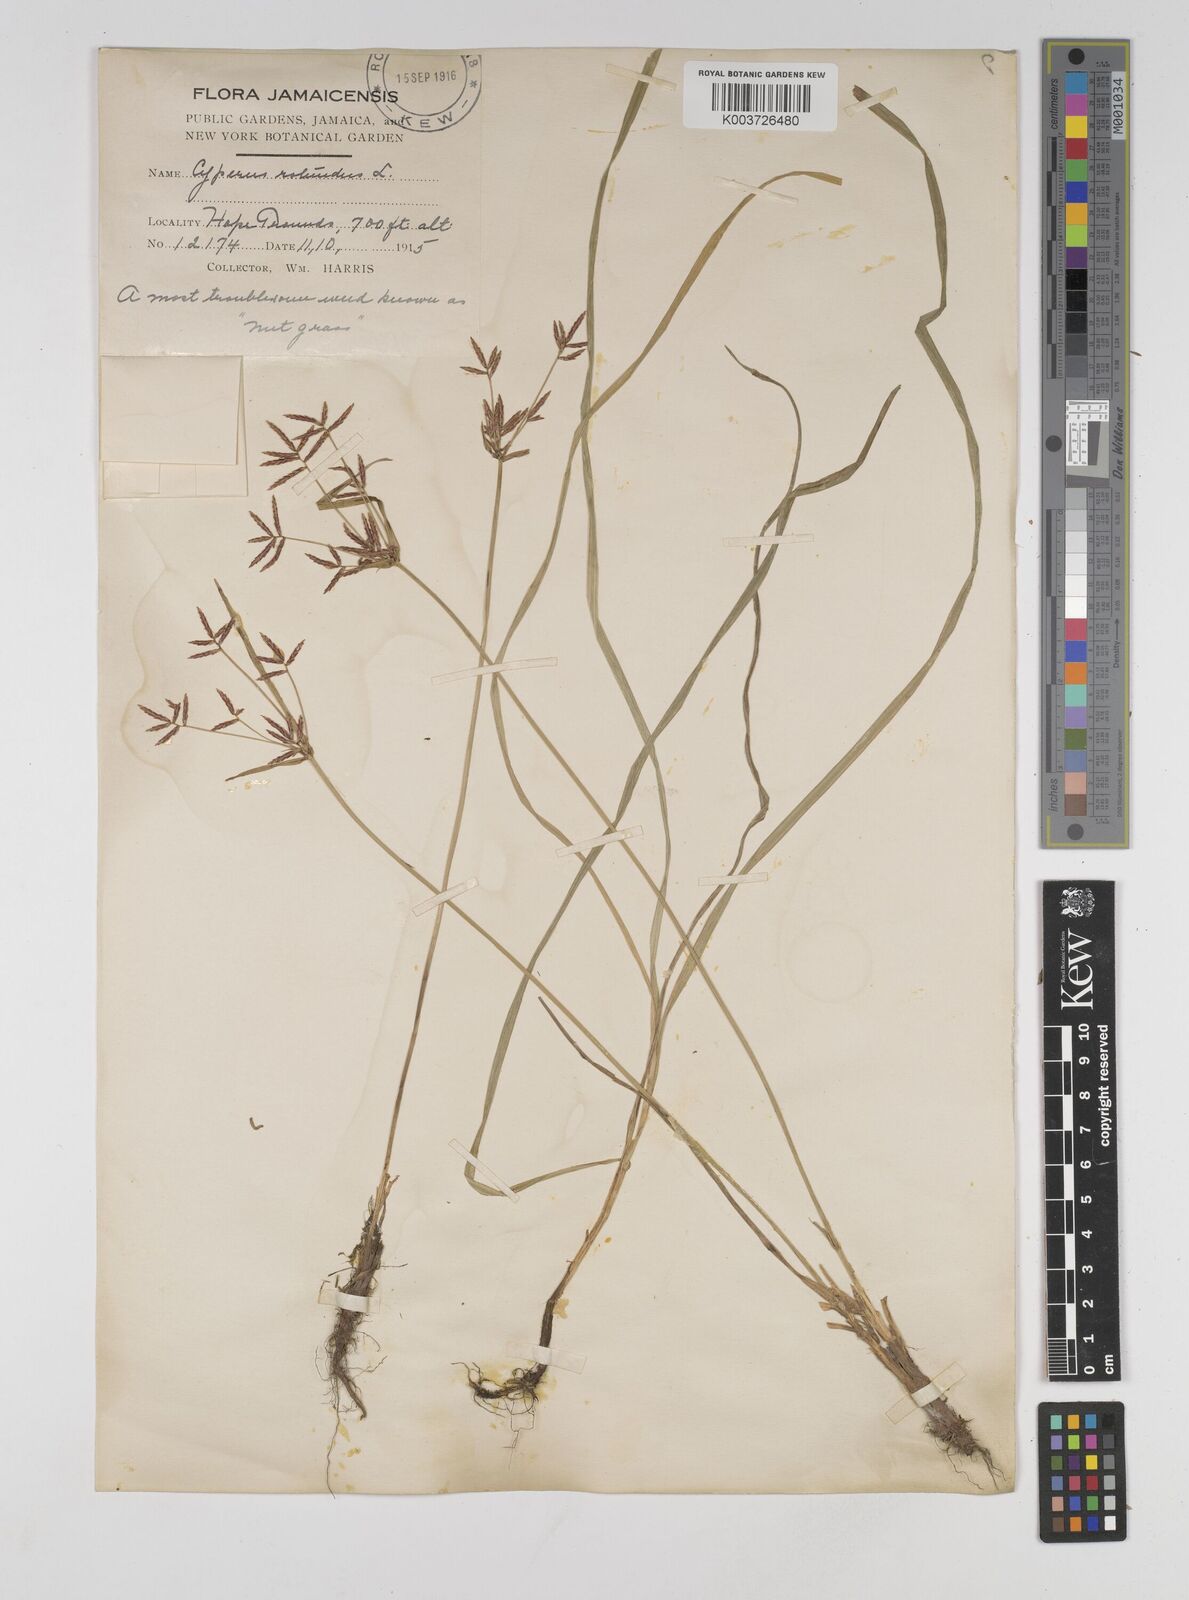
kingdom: Plantae
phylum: Tracheophyta
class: Liliopsida
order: Poales
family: Cyperaceae
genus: Cyperus
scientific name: Cyperus rotundus
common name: Nutgrass
